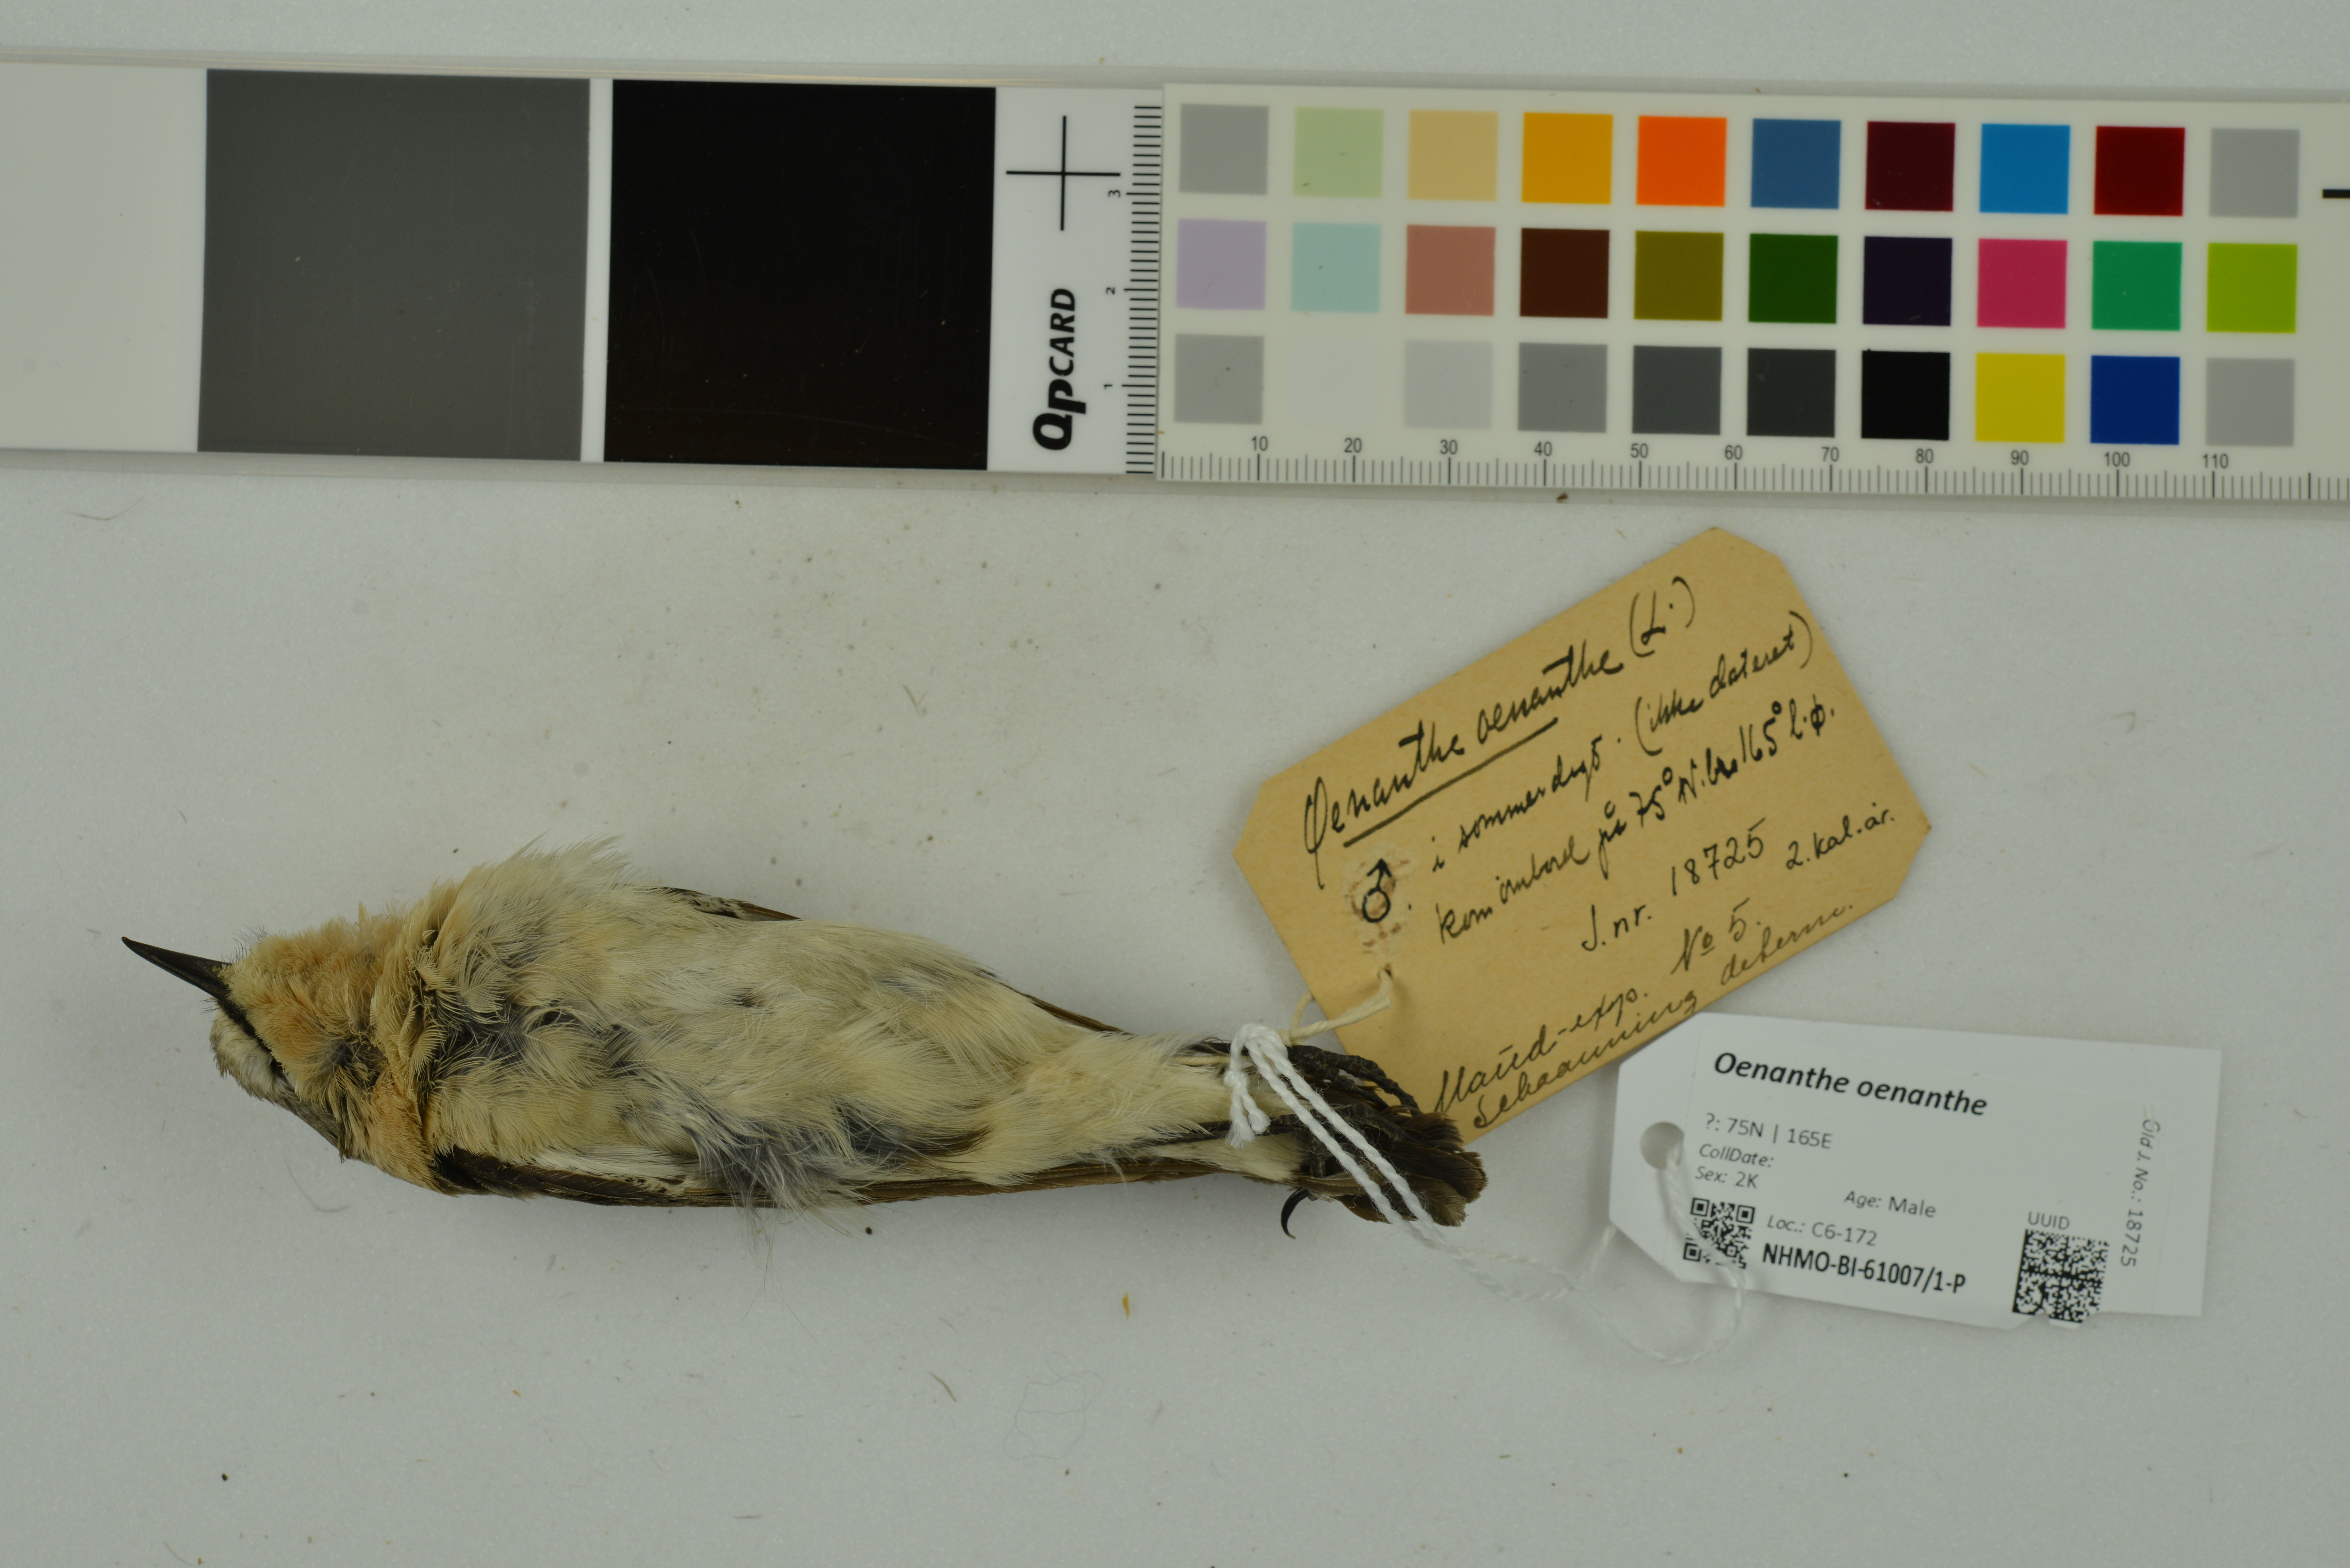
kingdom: Animalia
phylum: Chordata
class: Aves
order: Passeriformes
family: Muscicapidae
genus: Oenanthe
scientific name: Oenanthe oenanthe
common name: Northern wheatear
